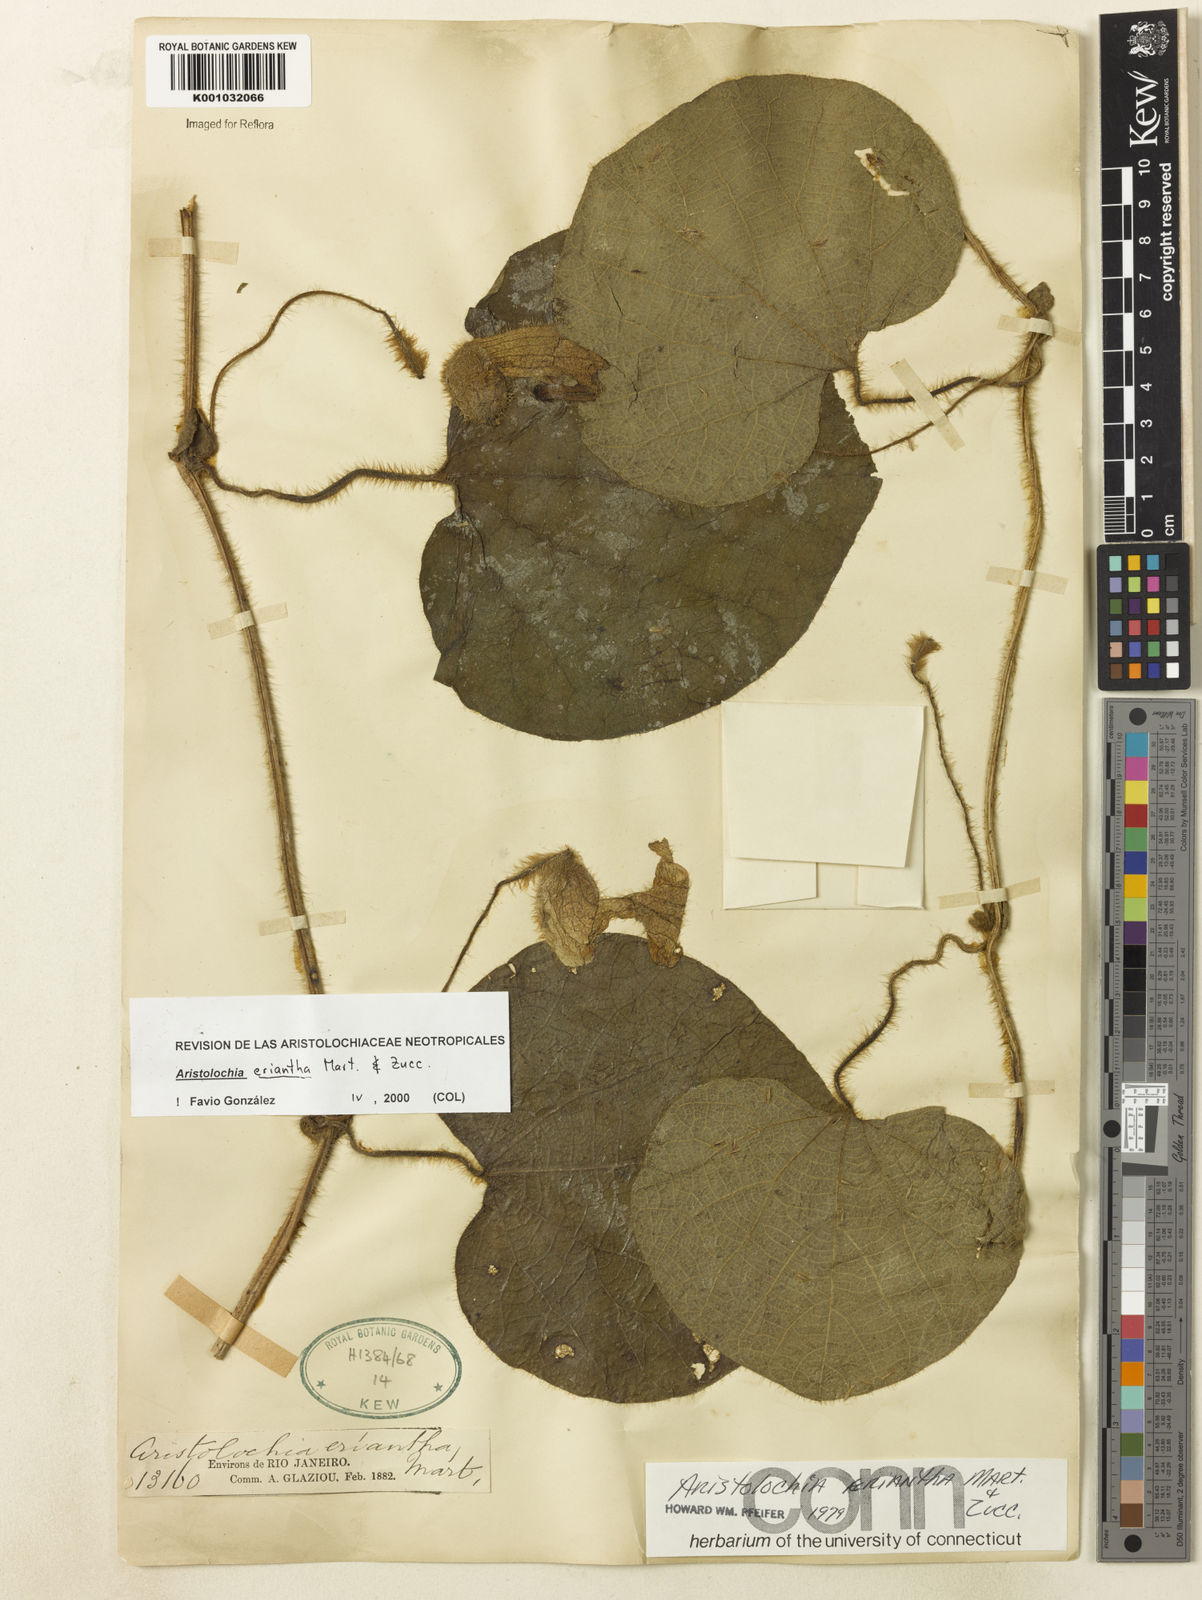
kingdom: Plantae
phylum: Tracheophyta
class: Magnoliopsida
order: Piperales
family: Aristolochiaceae
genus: Aristolochia
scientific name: Aristolochia eriantha
